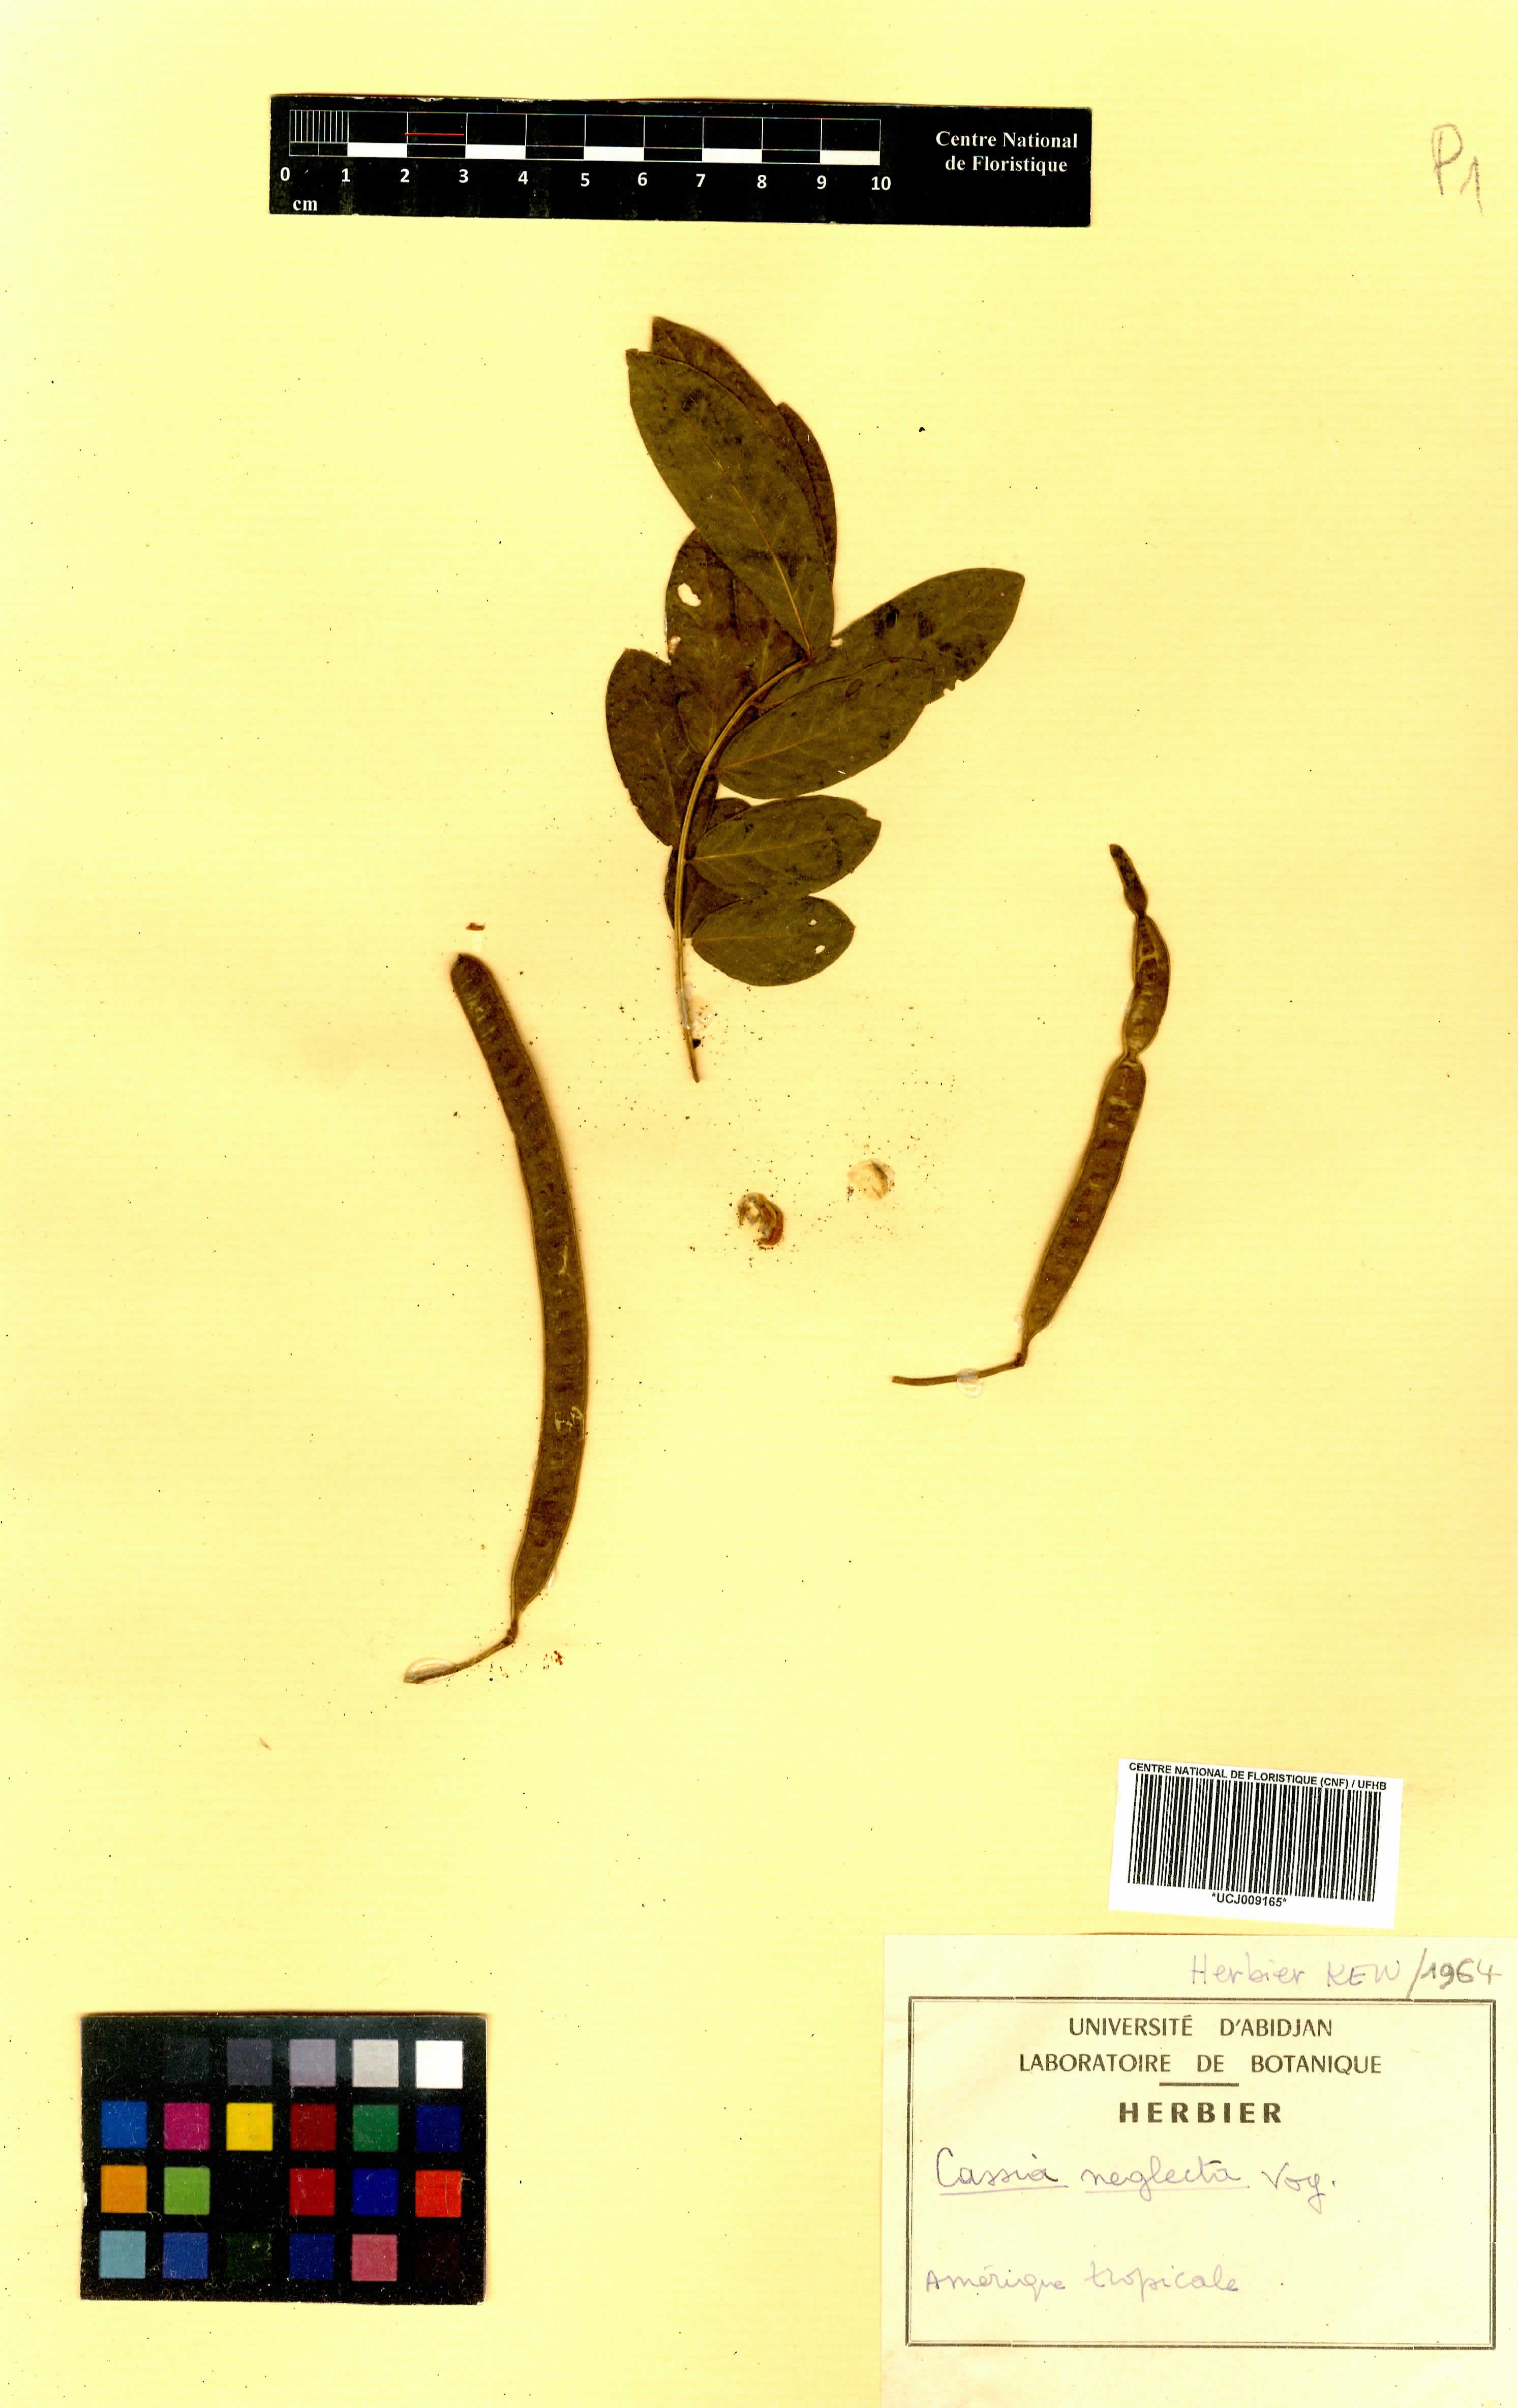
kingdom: Plantae
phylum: Tracheophyta
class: Magnoliopsida
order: Fabales
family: Fabaceae
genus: Senna
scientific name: Senna neglecta
